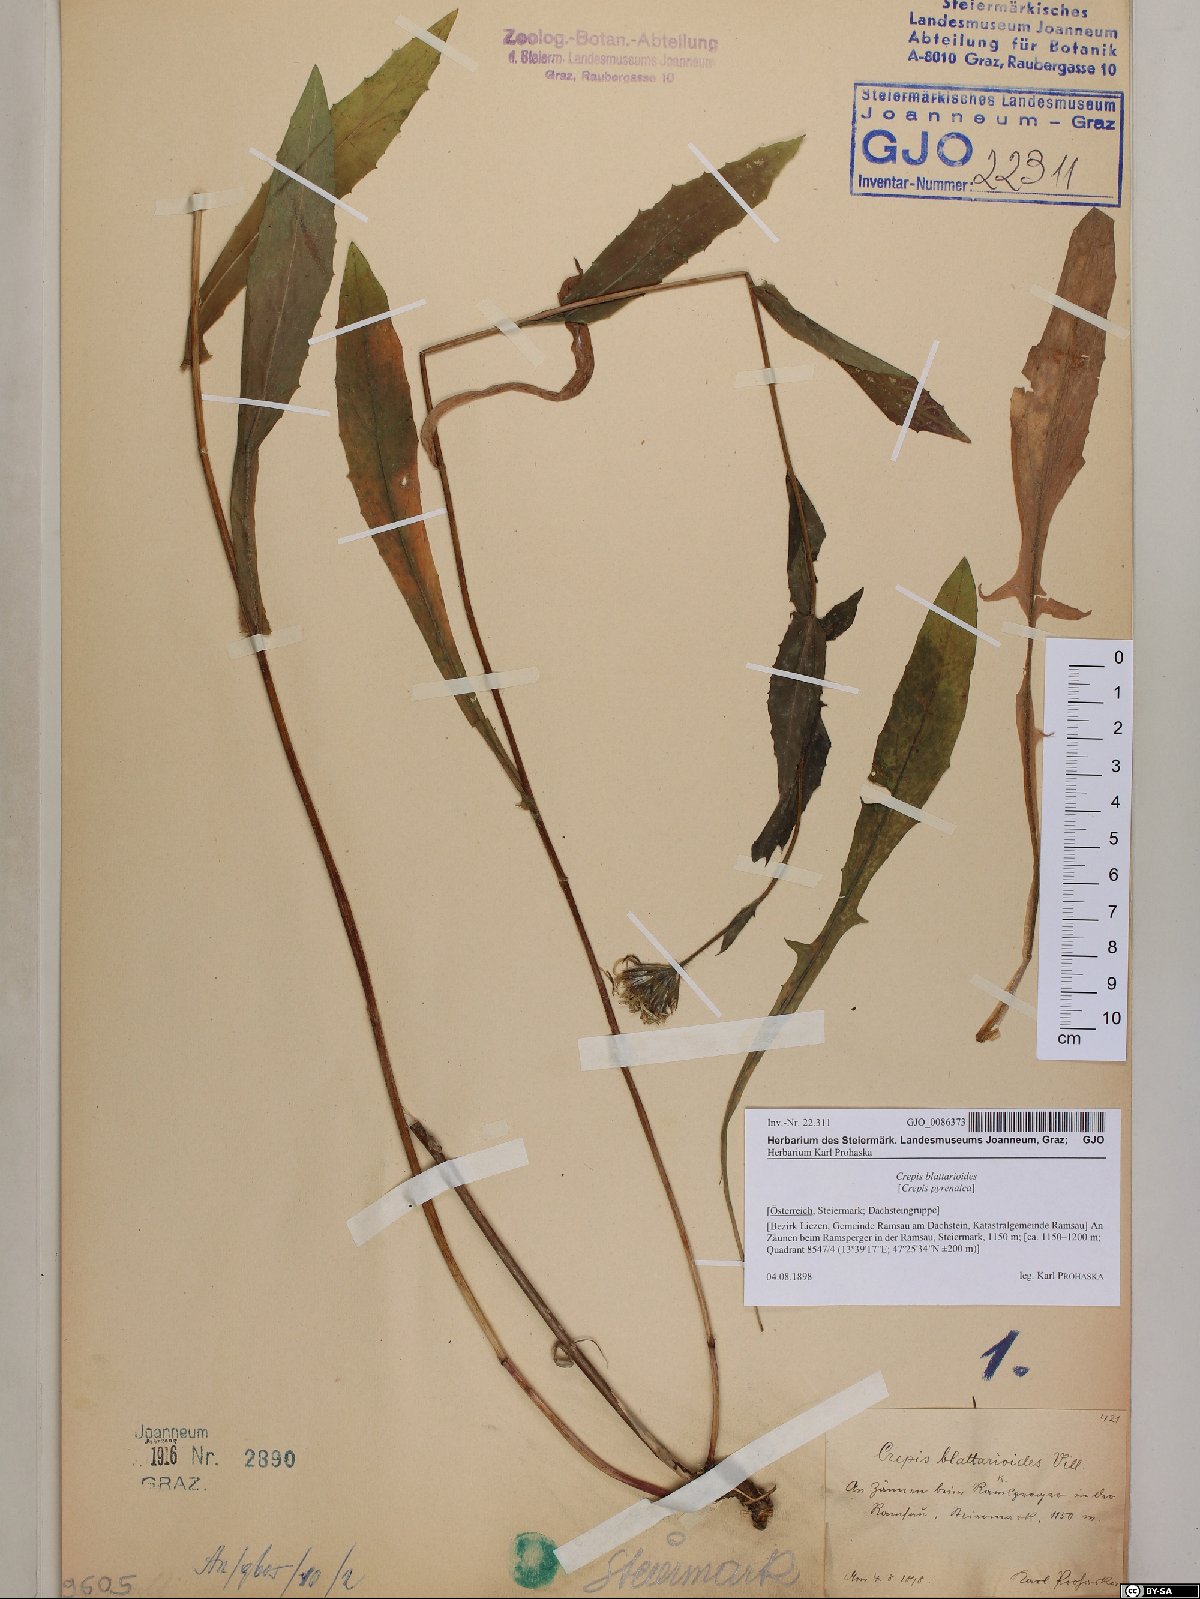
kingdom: Plantae
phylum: Tracheophyta
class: Magnoliopsida
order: Asterales
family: Asteraceae
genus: Crepis
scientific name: Crepis blattarioides
